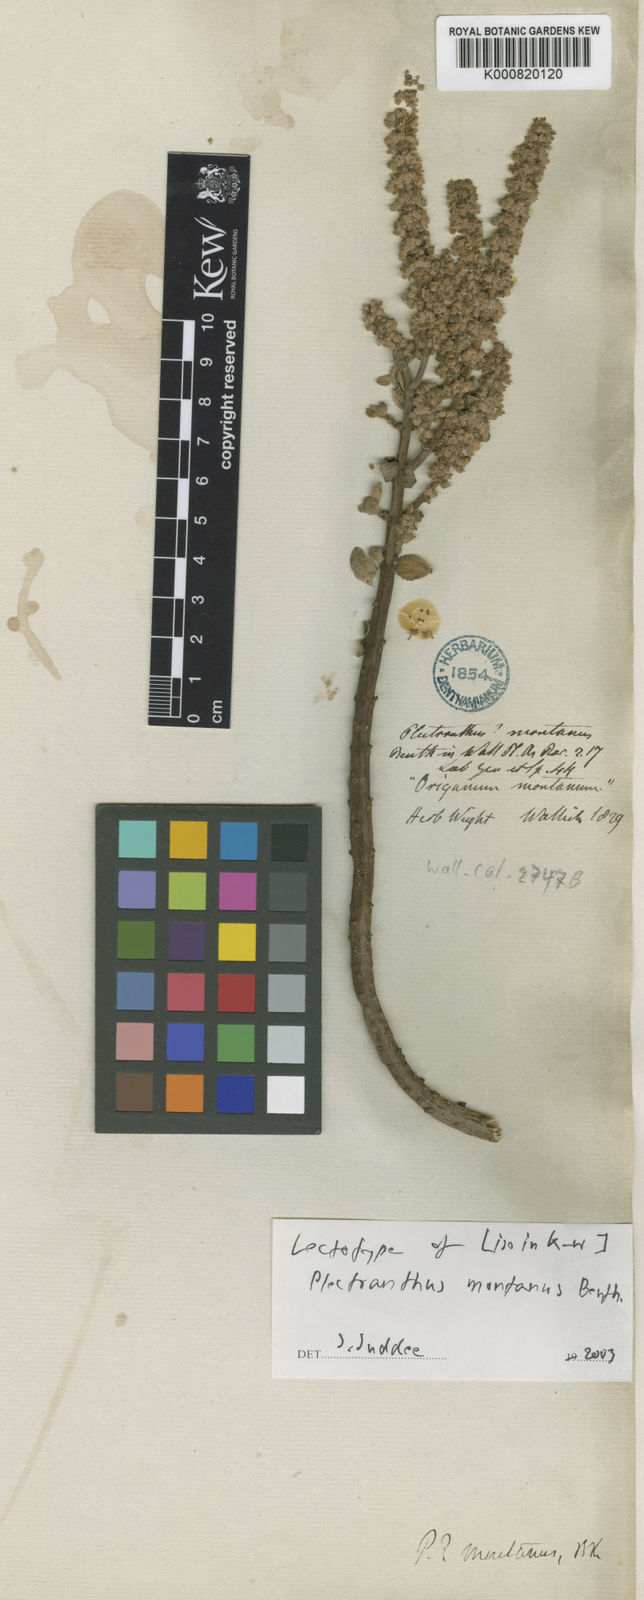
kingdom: Plantae
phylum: Tracheophyta
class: Magnoliopsida
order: Lamiales
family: Lamiaceae
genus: Coleus
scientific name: Coleus cylindraceus
